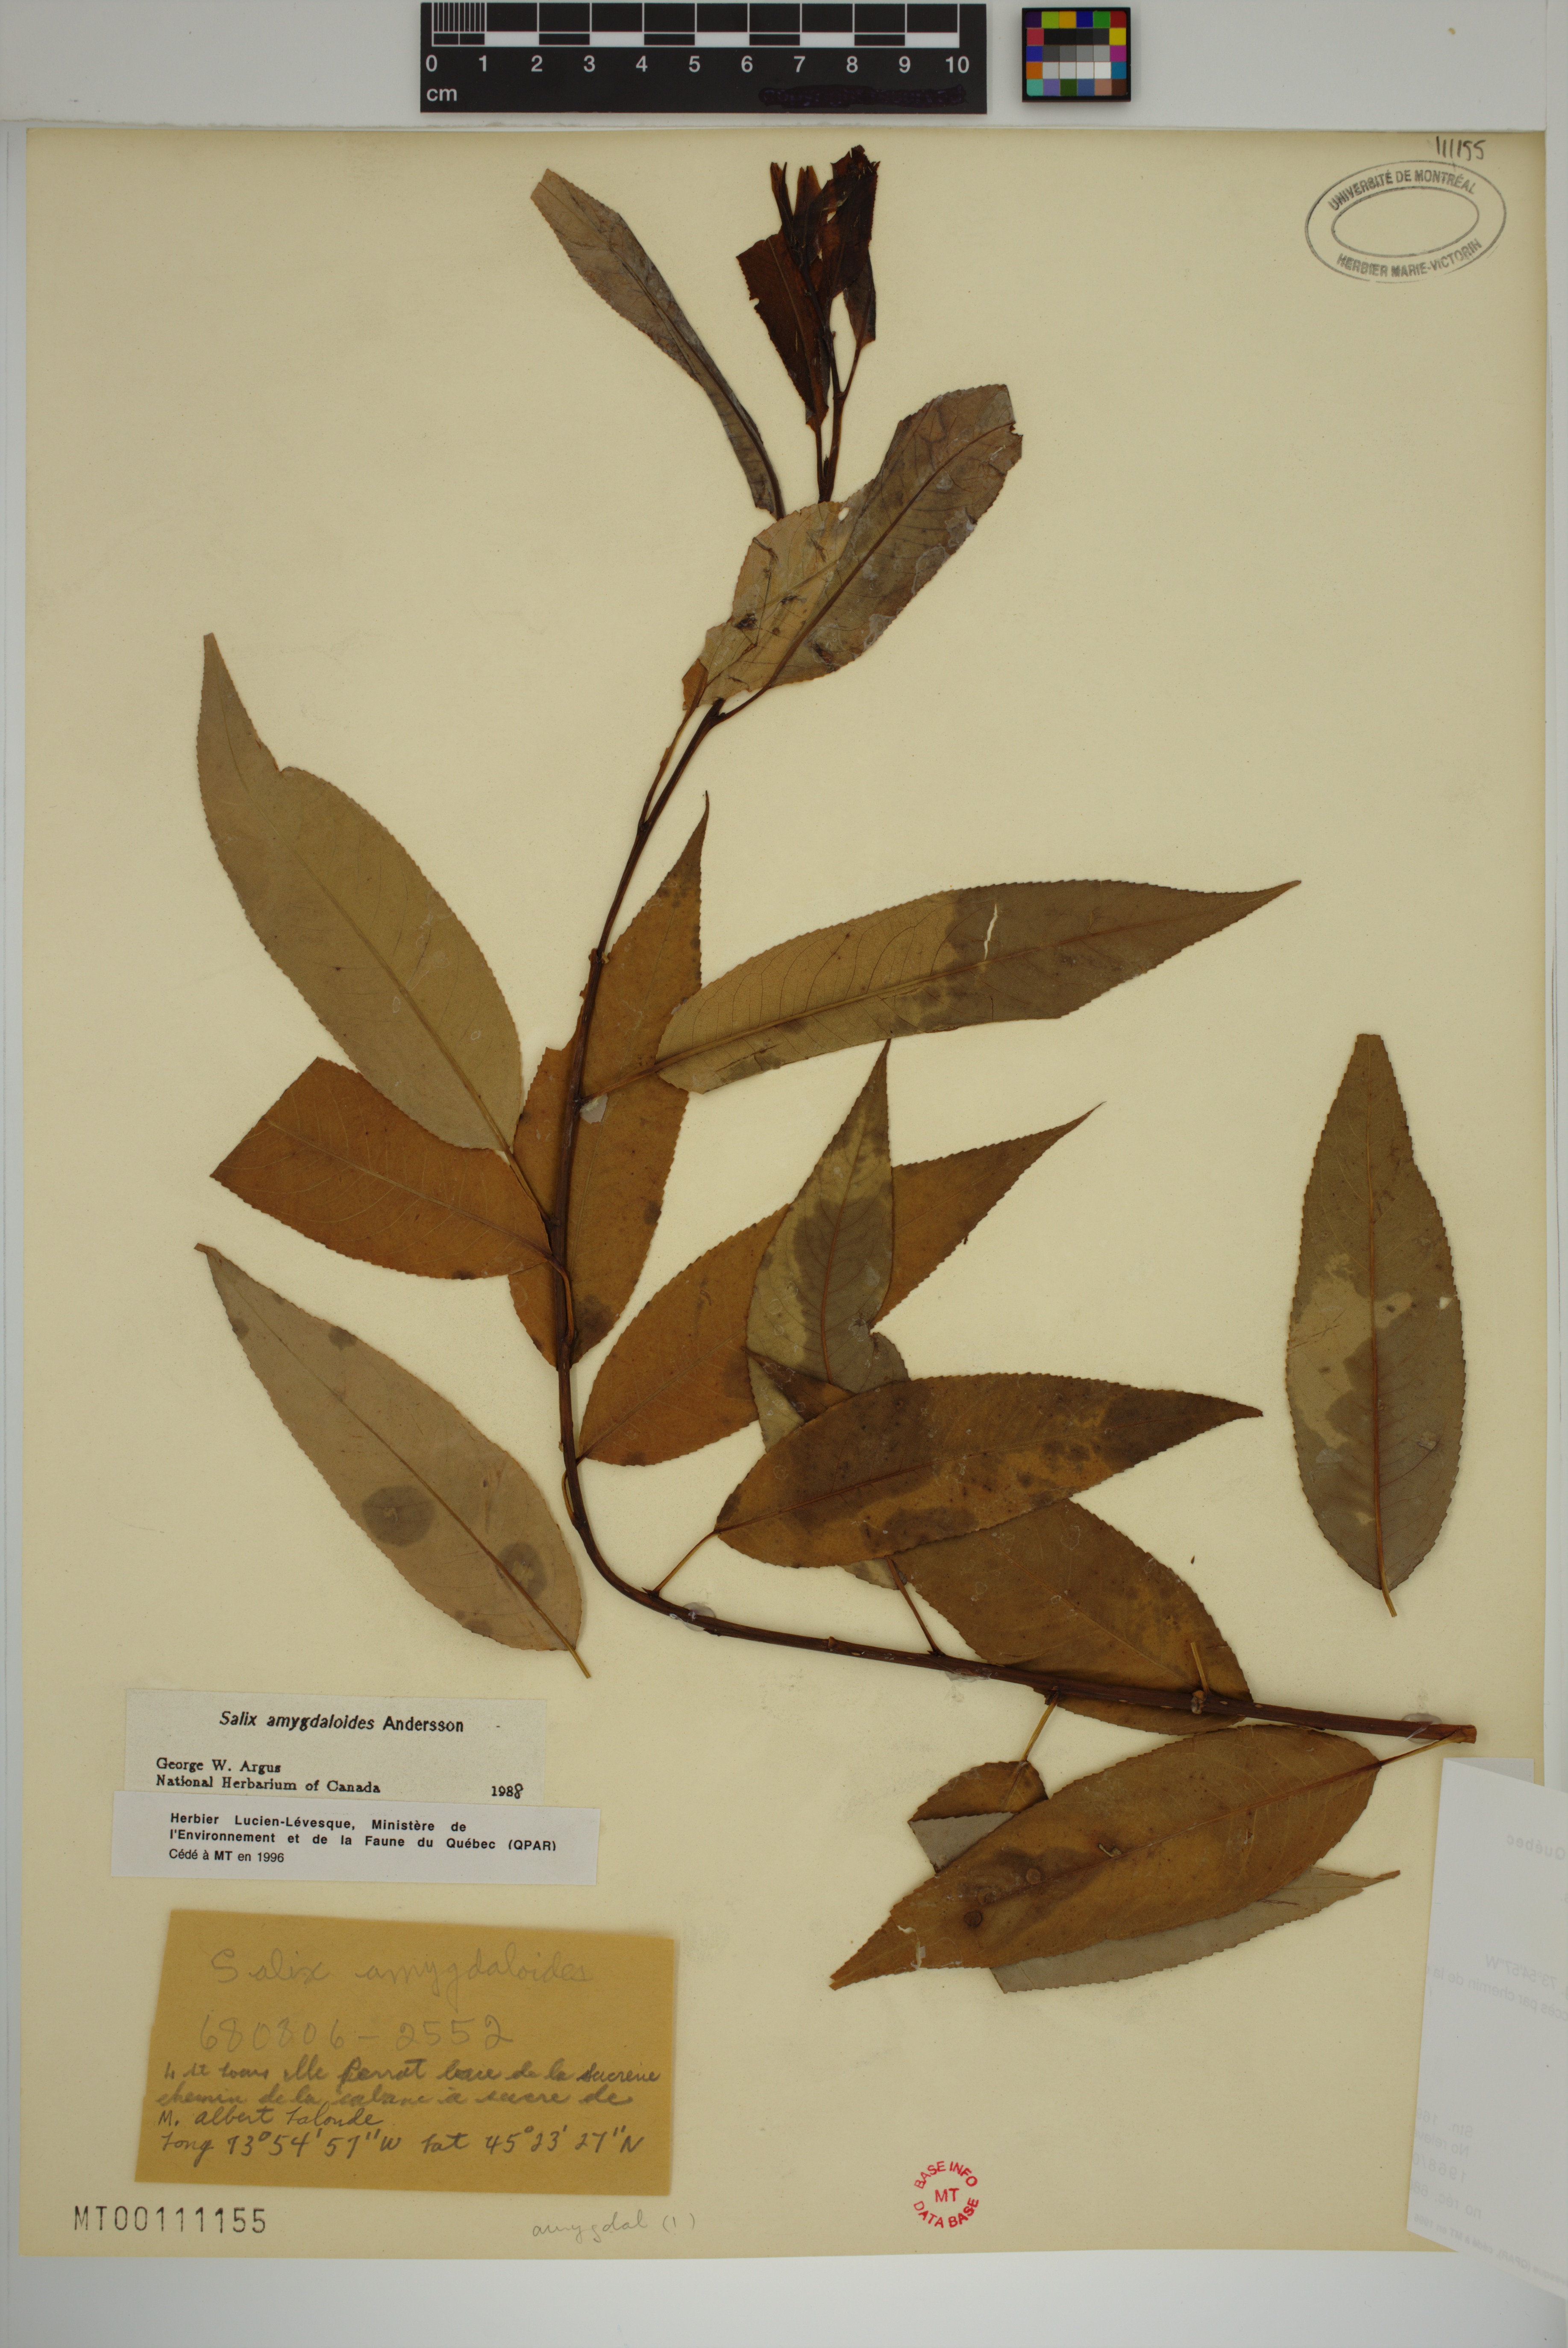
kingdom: Plantae
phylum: Tracheophyta
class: Magnoliopsida
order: Malpighiales
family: Salicaceae
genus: Salix
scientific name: Salix amygdaloides
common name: Peach leaf willow
